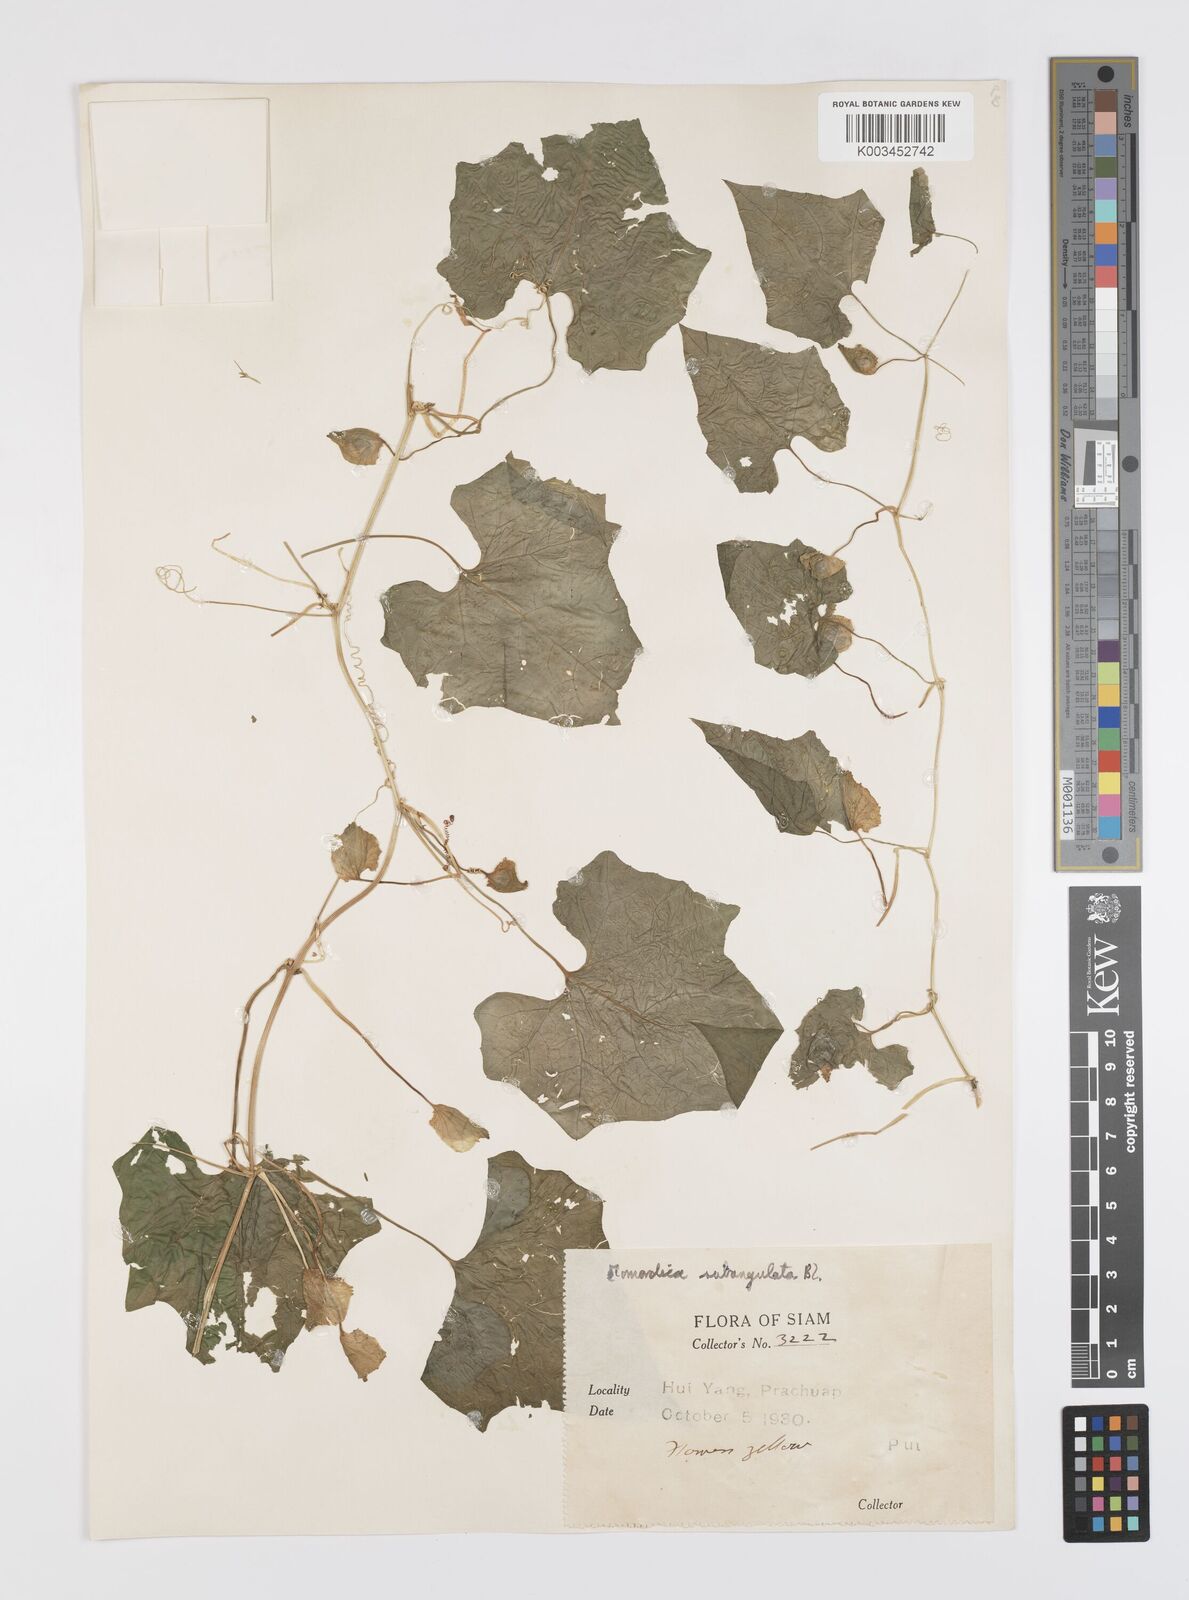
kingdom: Plantae
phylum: Tracheophyta
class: Magnoliopsida
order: Cucurbitales
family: Cucurbitaceae
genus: Momordica
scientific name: Momordica subangulata
